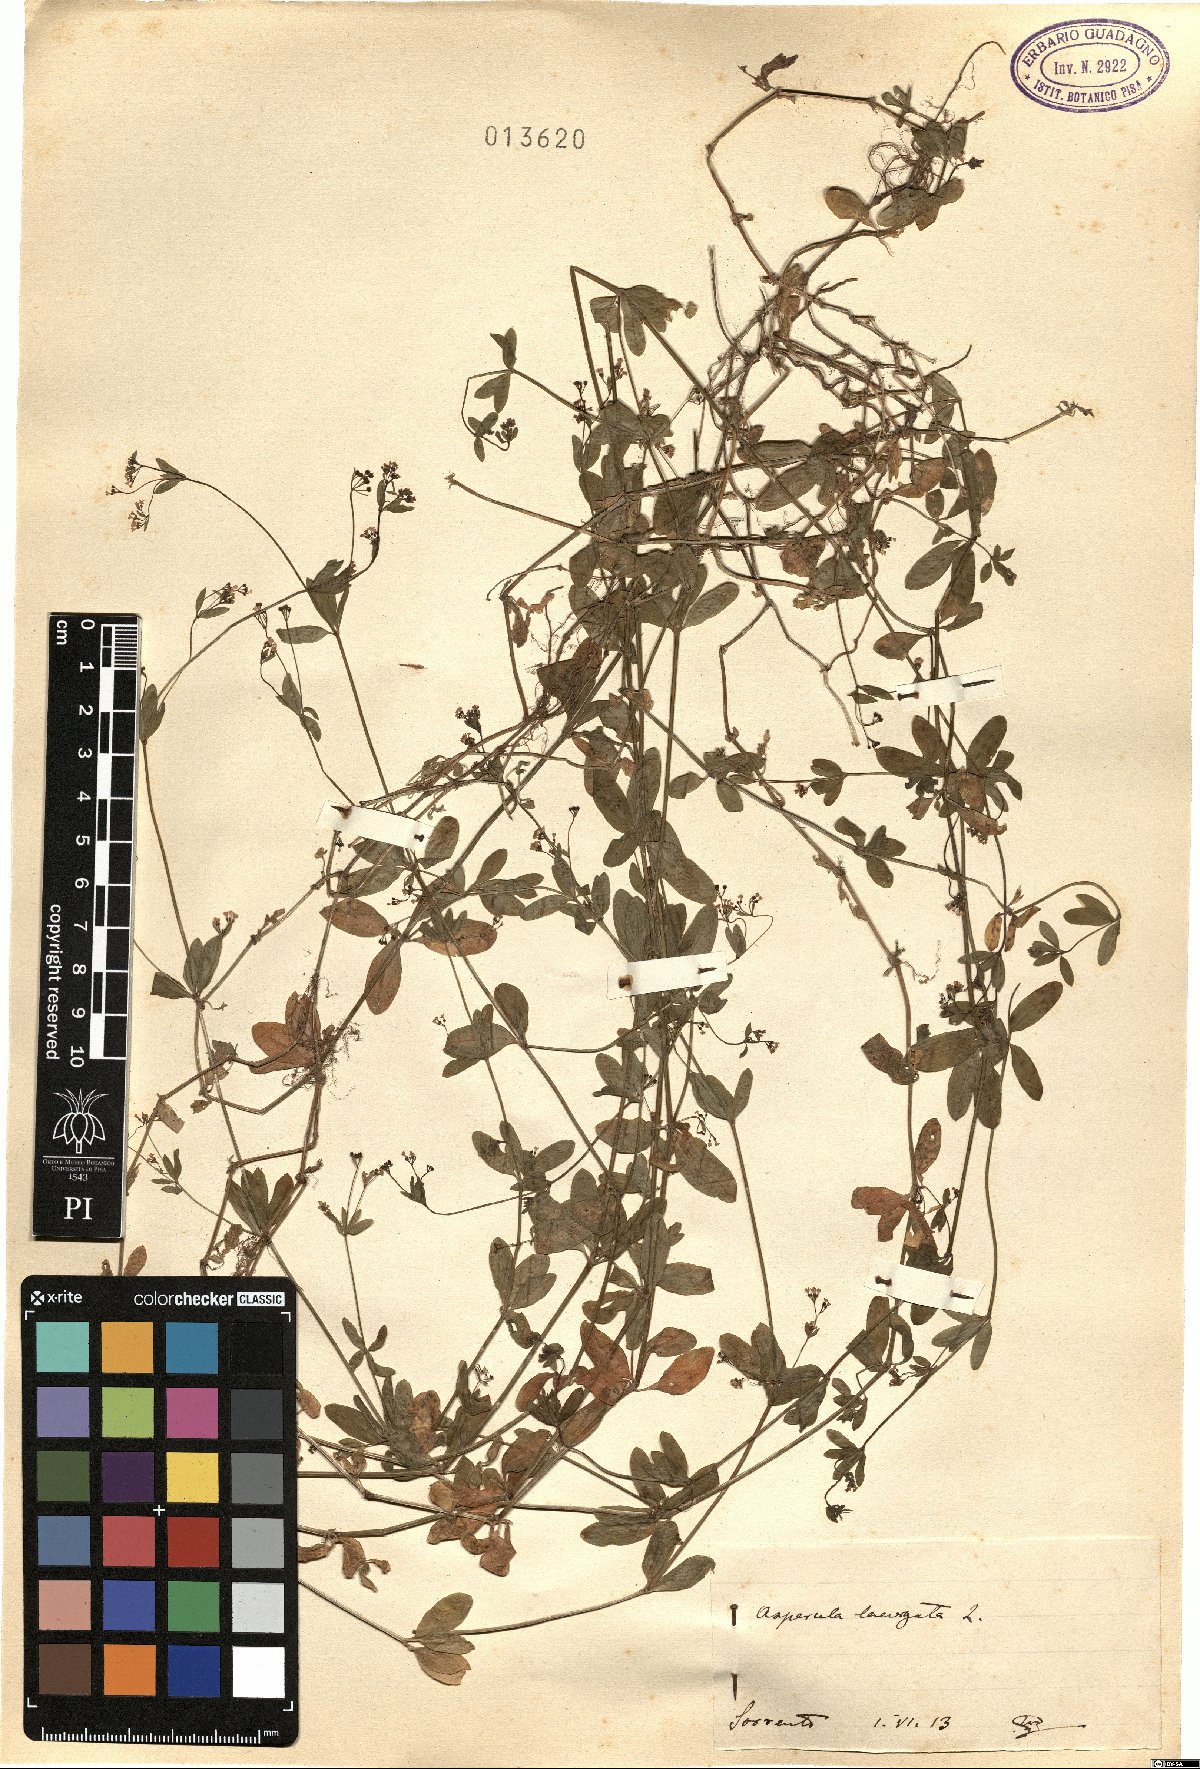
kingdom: Plantae
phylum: Tracheophyta
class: Magnoliopsida
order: Gentianales
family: Rubiaceae
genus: Asperula
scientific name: Asperula laevigata
